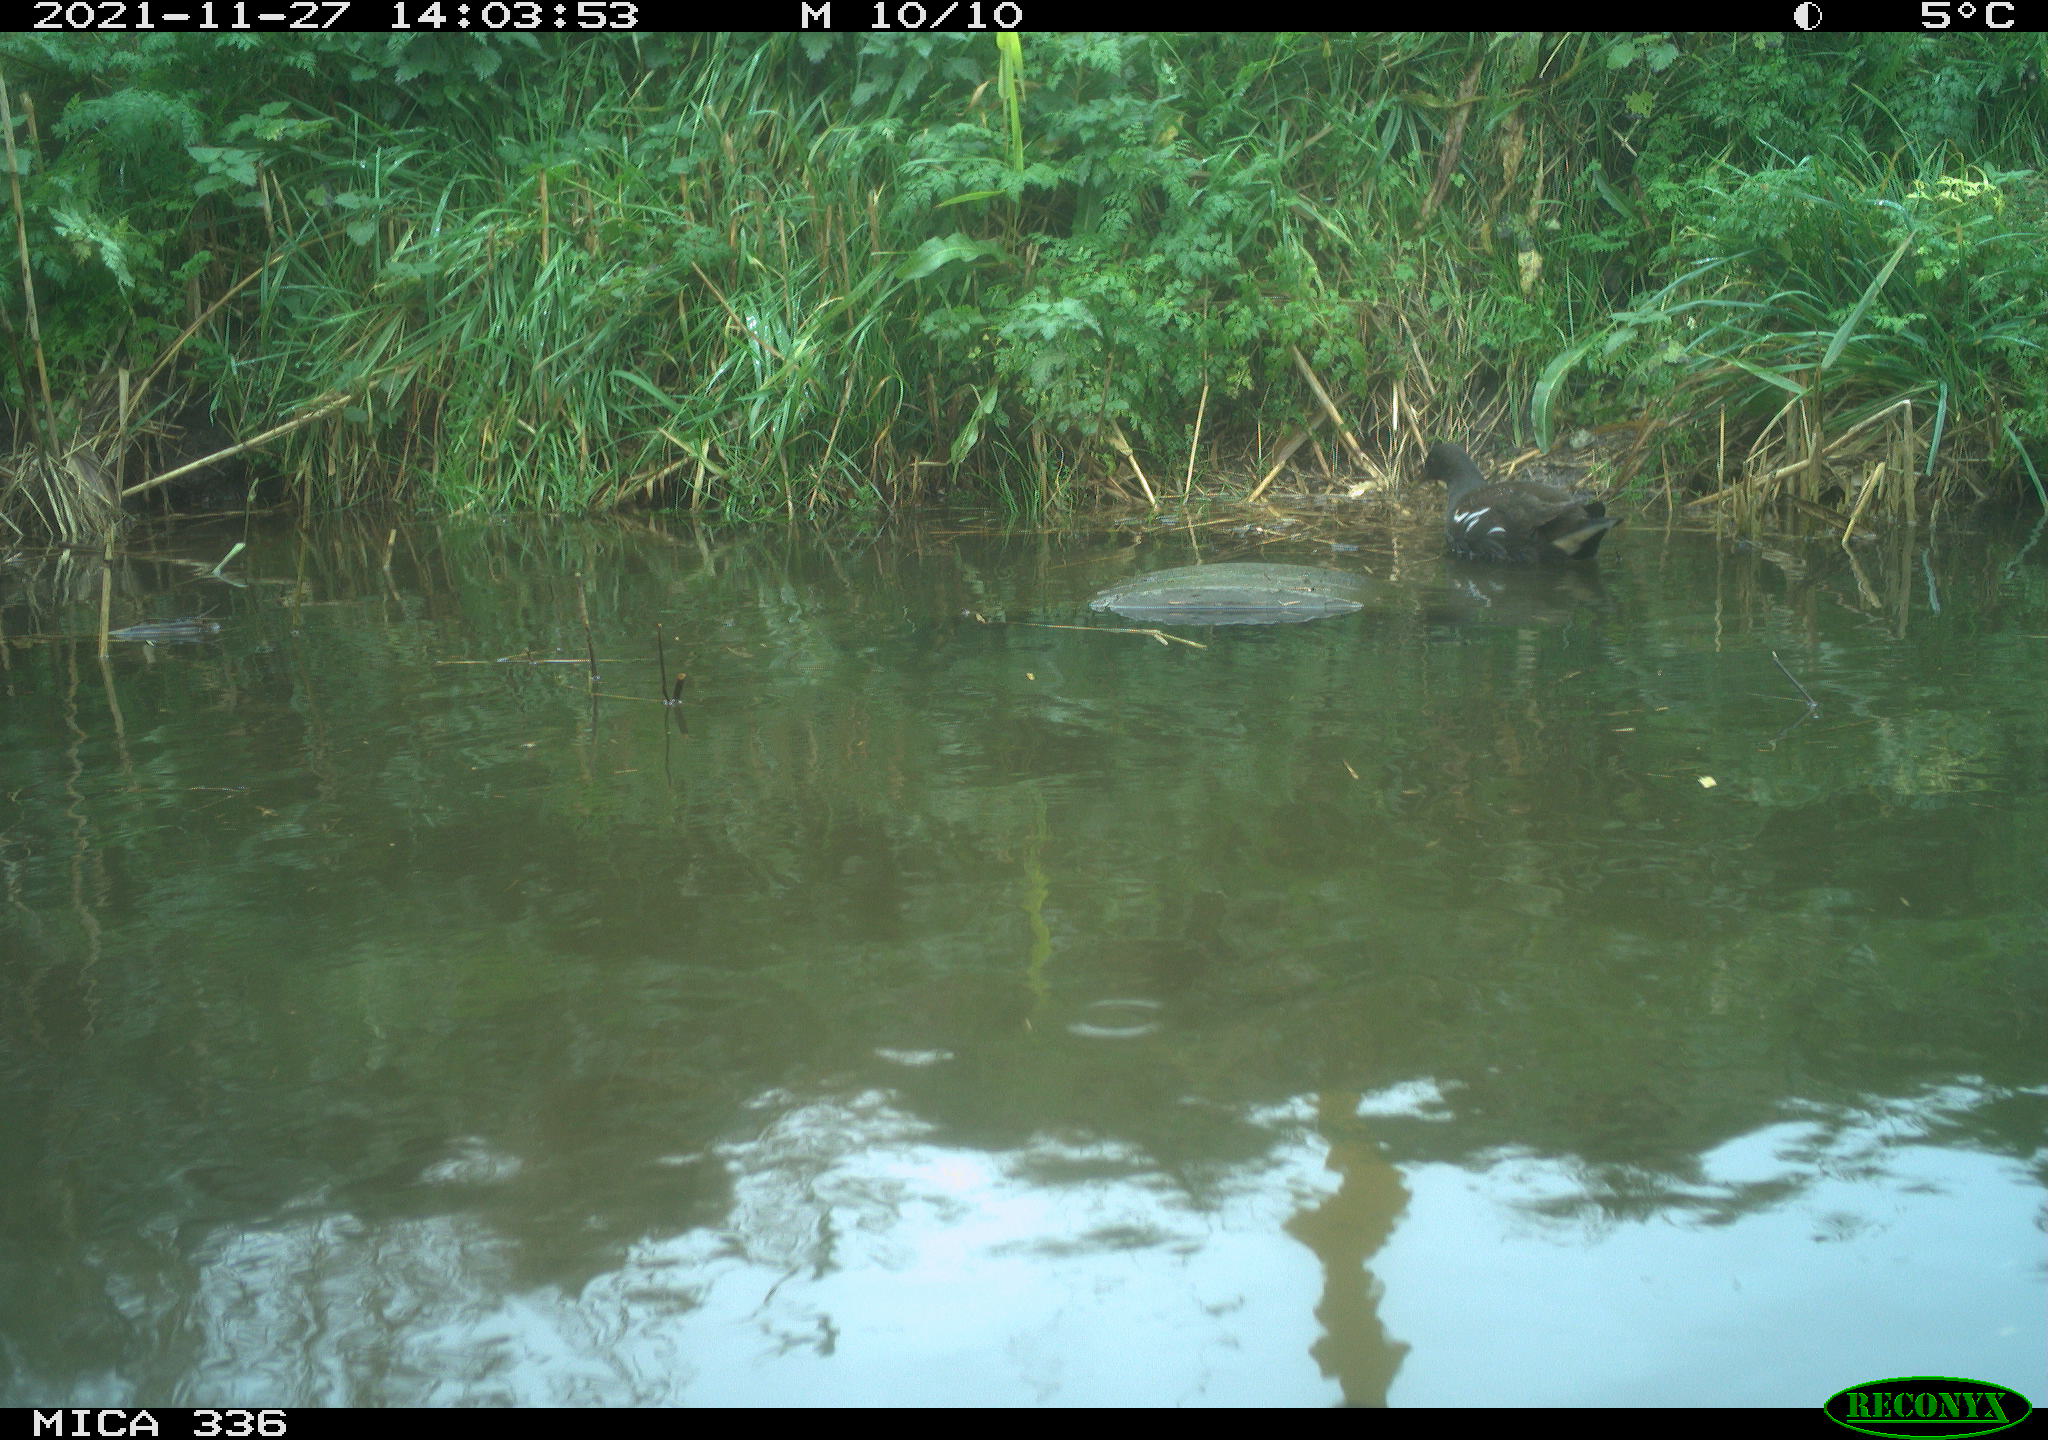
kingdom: Animalia
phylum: Chordata
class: Aves
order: Gruiformes
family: Rallidae
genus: Gallinula
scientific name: Gallinula chloropus
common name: Common moorhen
